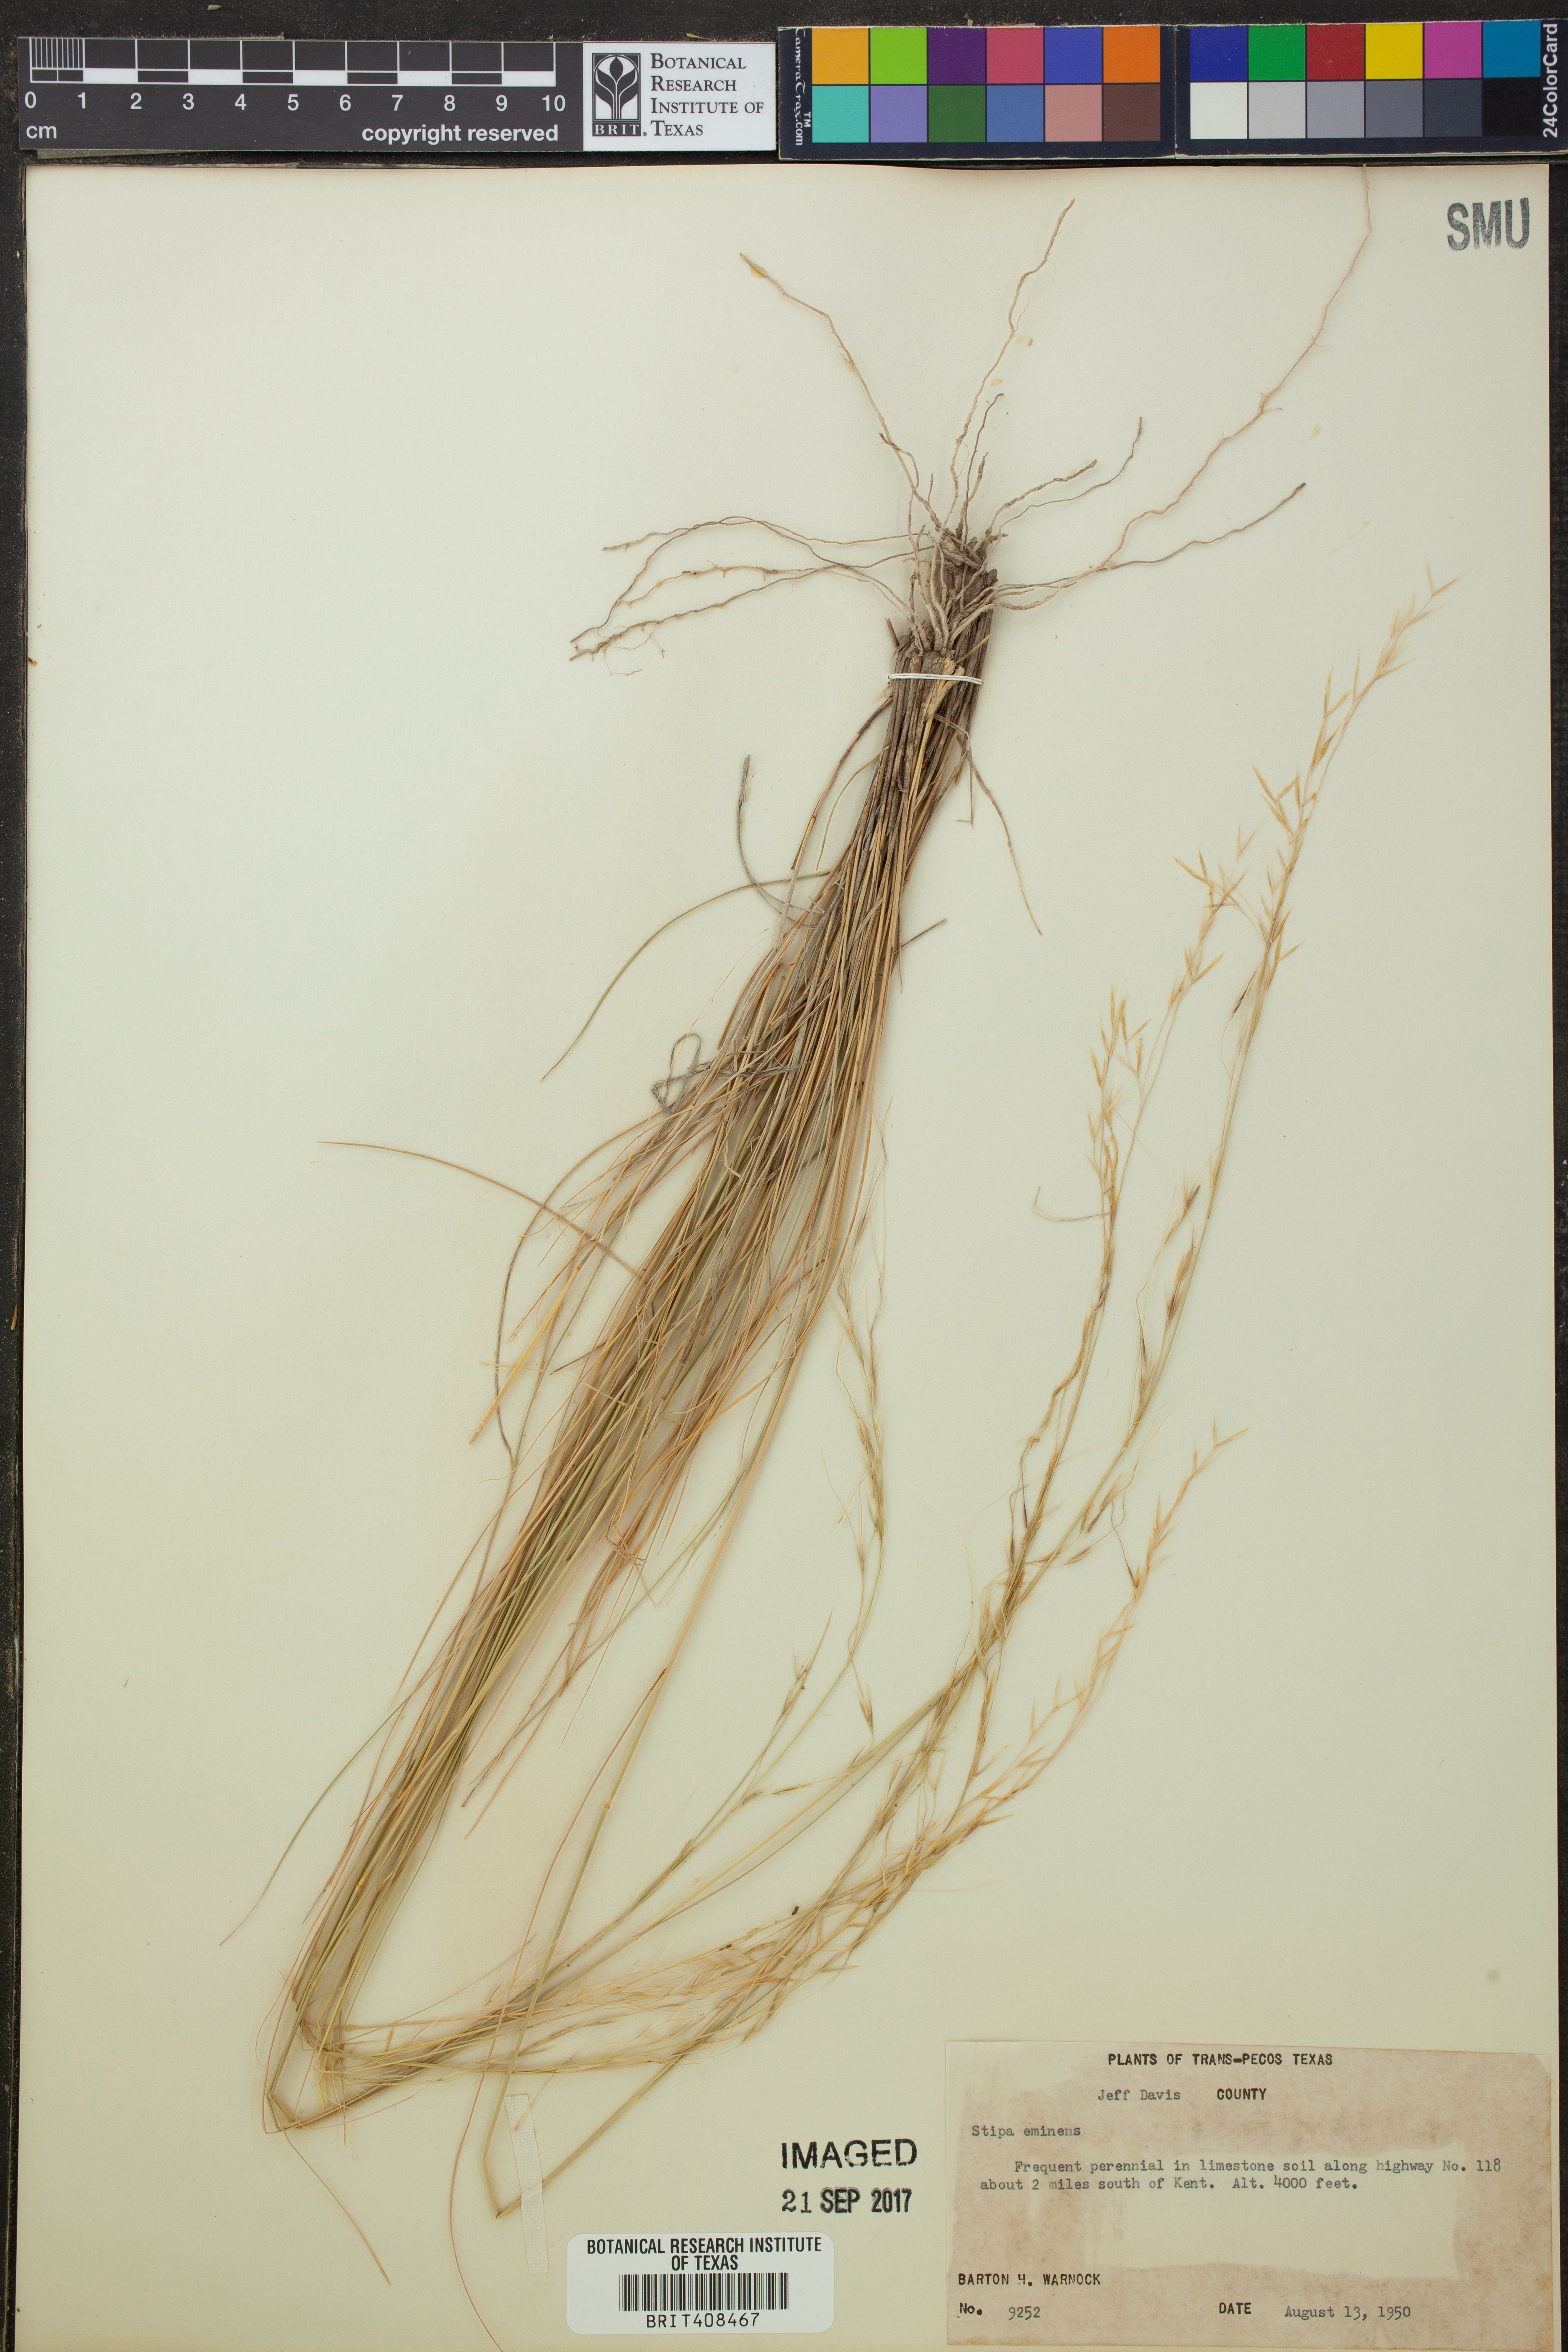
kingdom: Plantae
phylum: Tracheophyta
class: Liliopsida
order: Poales
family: Poaceae
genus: Pseudoeriocoma
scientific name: Pseudoeriocoma eminens
